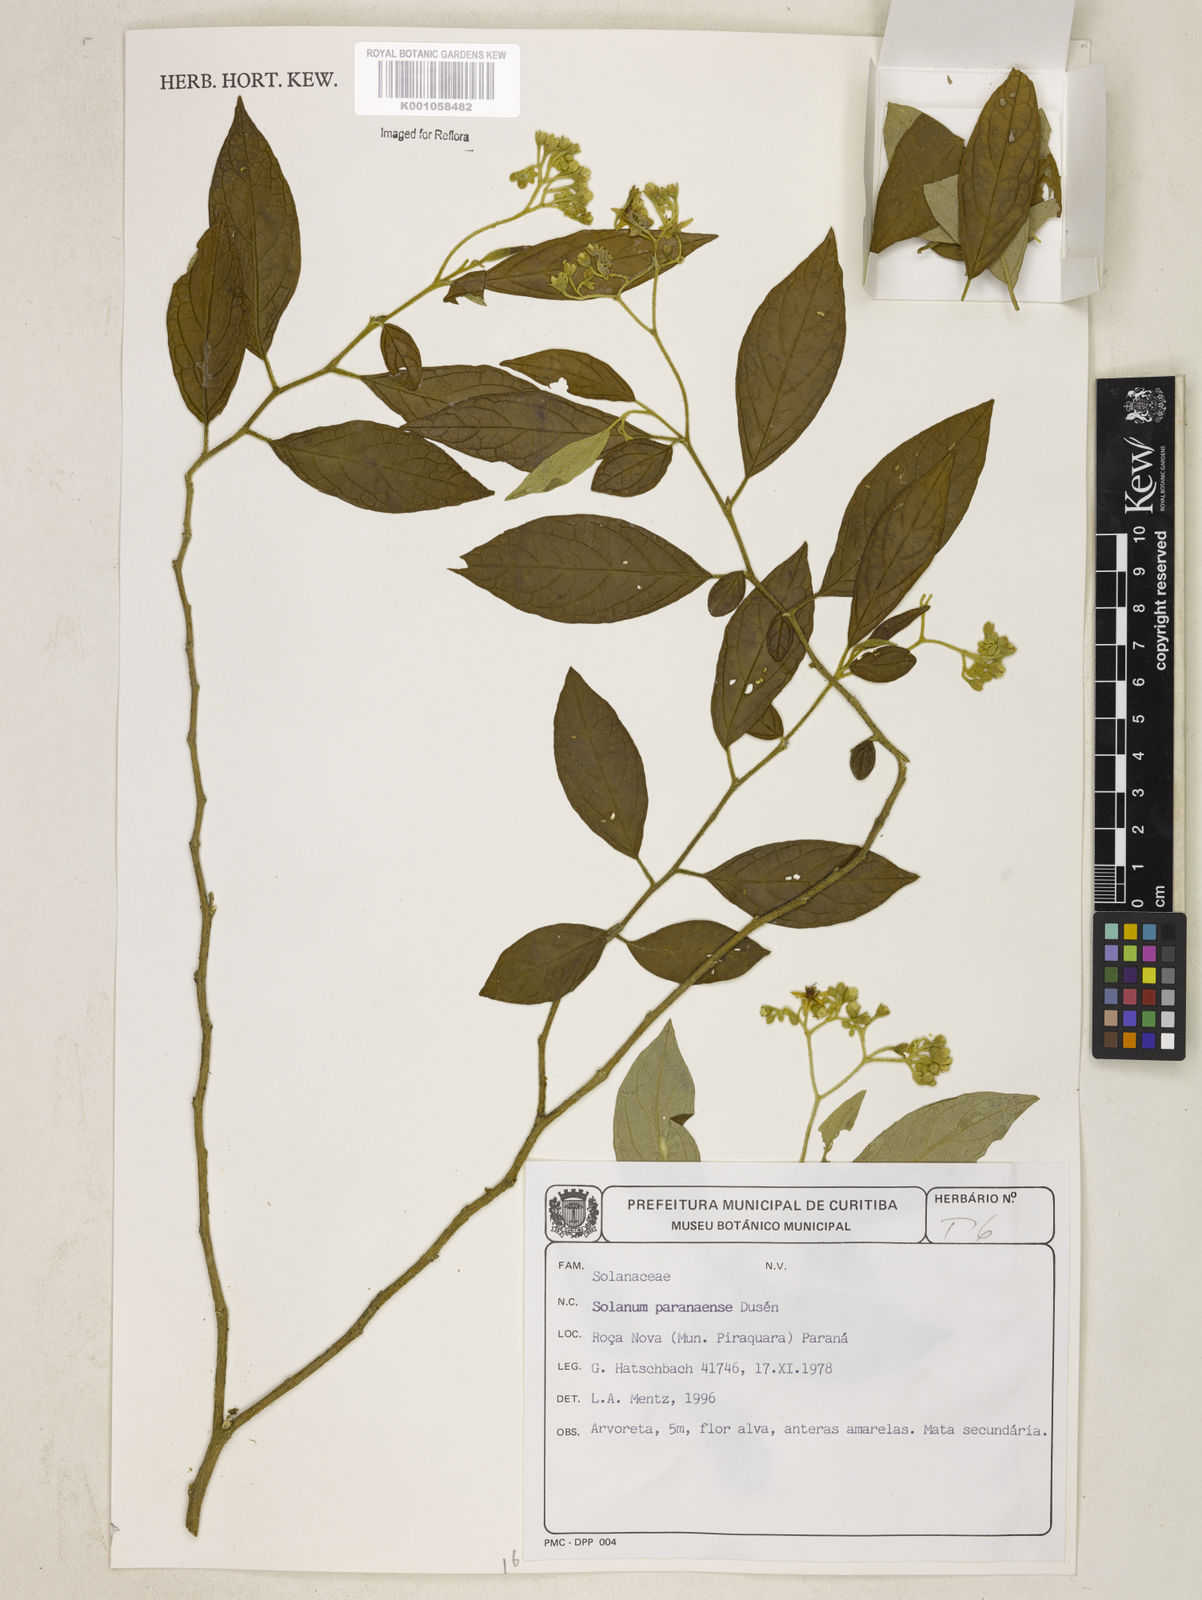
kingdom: Plantae
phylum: Tracheophyta
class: Magnoliopsida
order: Solanales
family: Solanaceae
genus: Solanum
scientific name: Solanum
